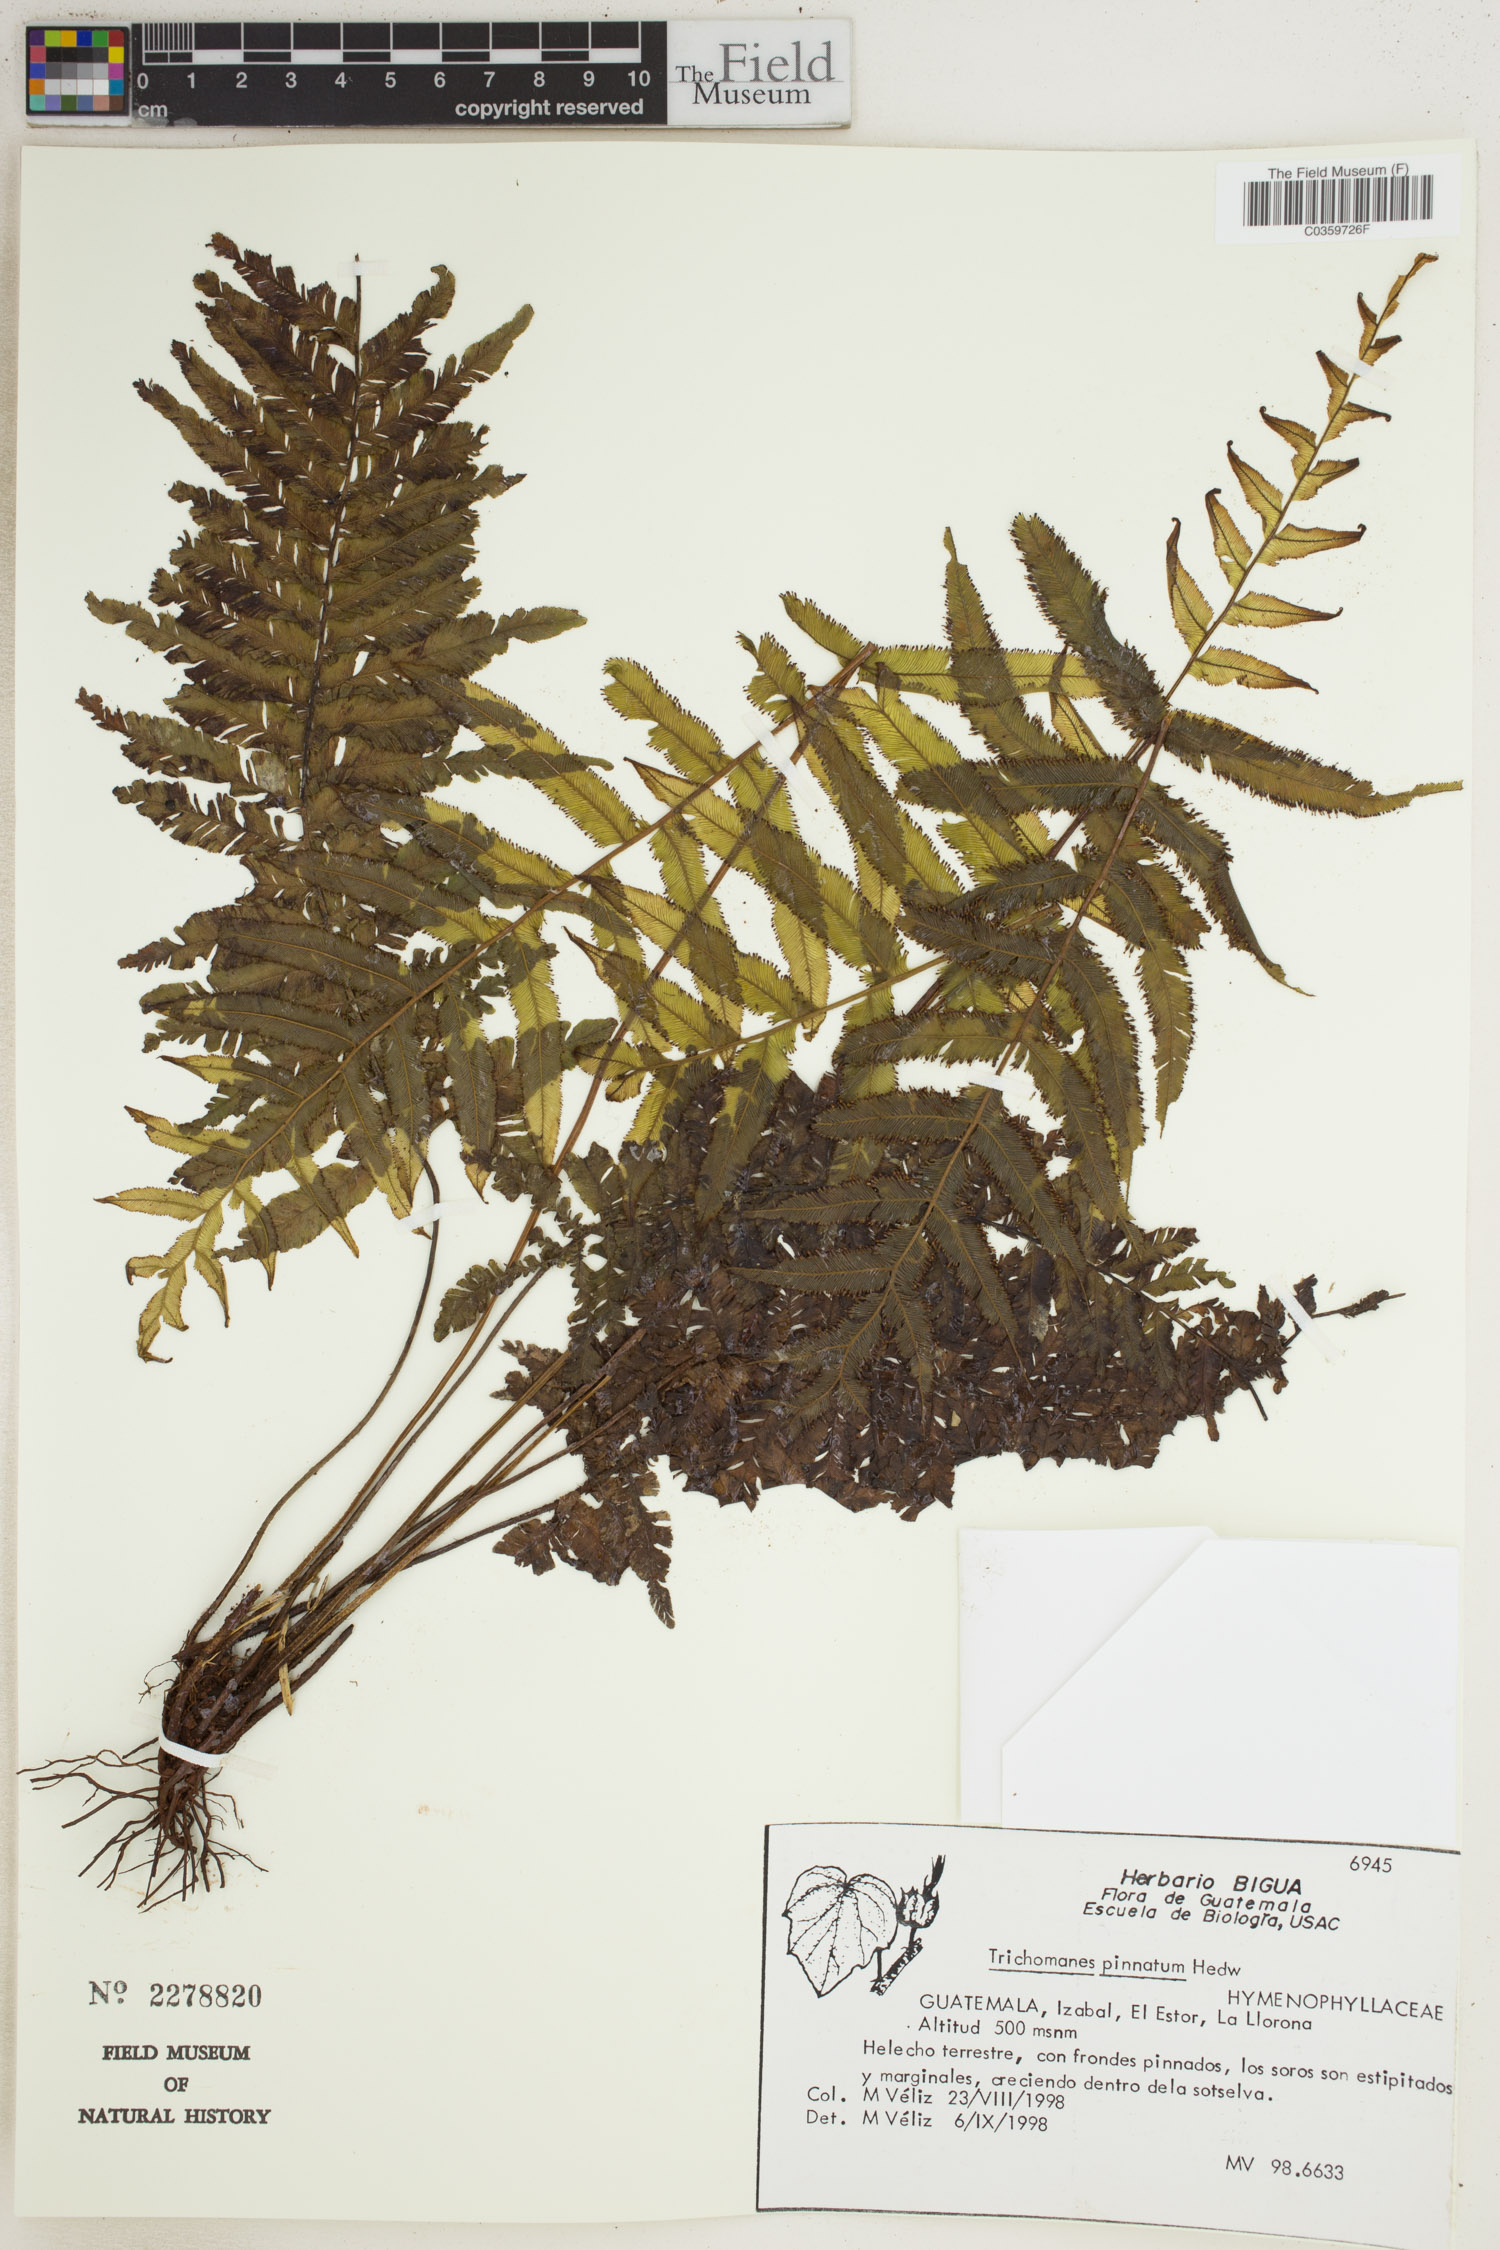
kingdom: Plantae
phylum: Tracheophyta
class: Polypodiopsida
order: Hymenophyllales
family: Hymenophyllaceae
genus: Trichomanes
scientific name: Trichomanes pinnatum
